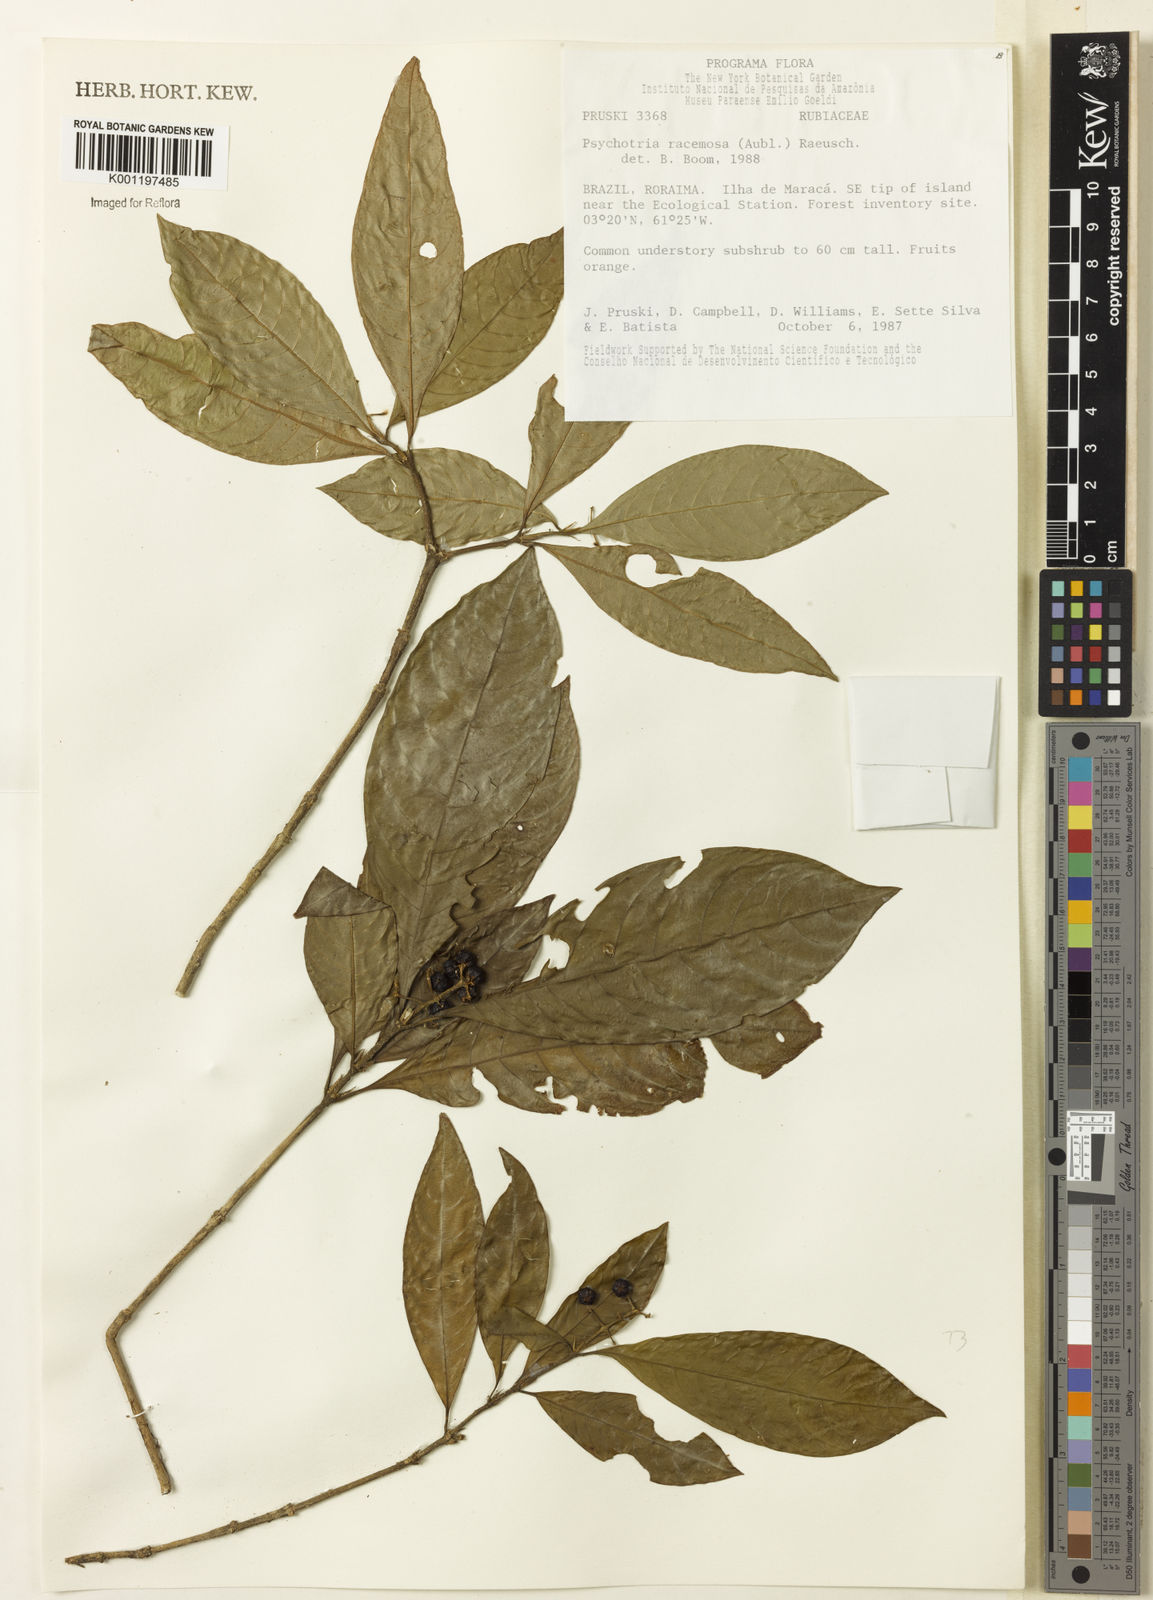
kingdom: Plantae
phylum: Tracheophyta
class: Magnoliopsida
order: Gentianales
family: Rubiaceae
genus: Palicourea
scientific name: Palicourea racemosa
